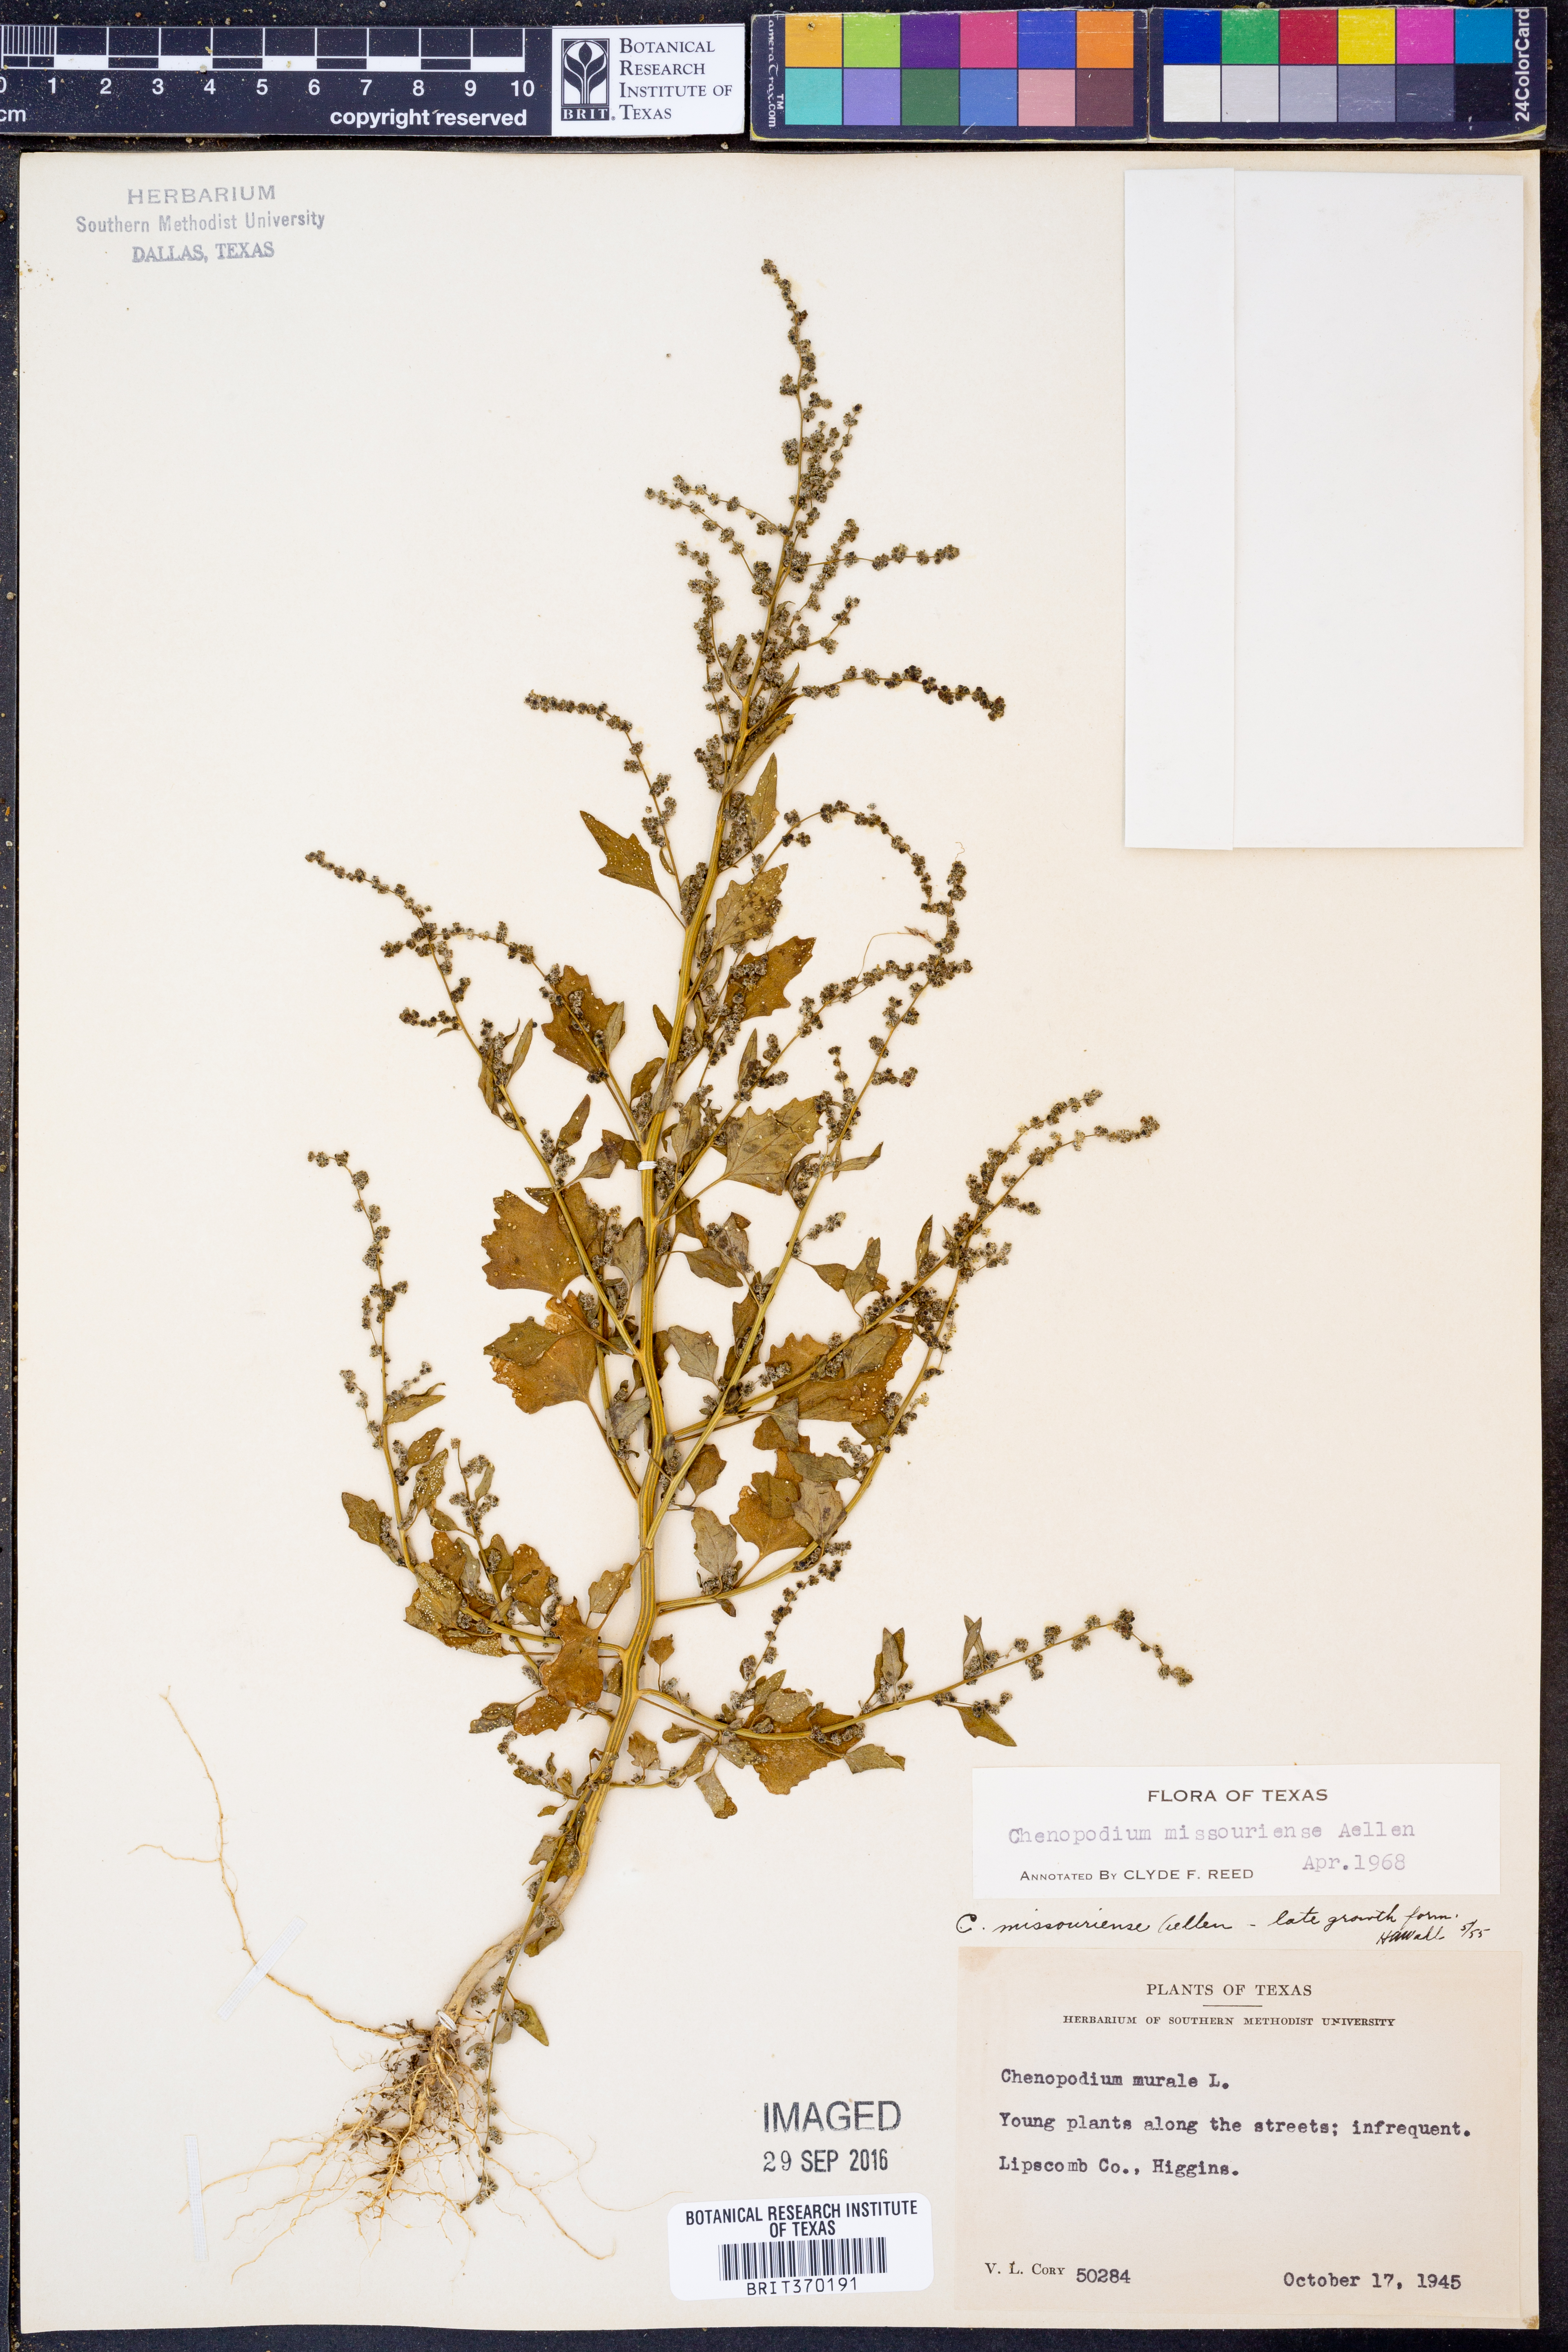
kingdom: Plantae
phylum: Tracheophyta
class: Magnoliopsida
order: Caryophyllales
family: Amaranthaceae
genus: Chenopodium
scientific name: Chenopodium album
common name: Fat-hen
